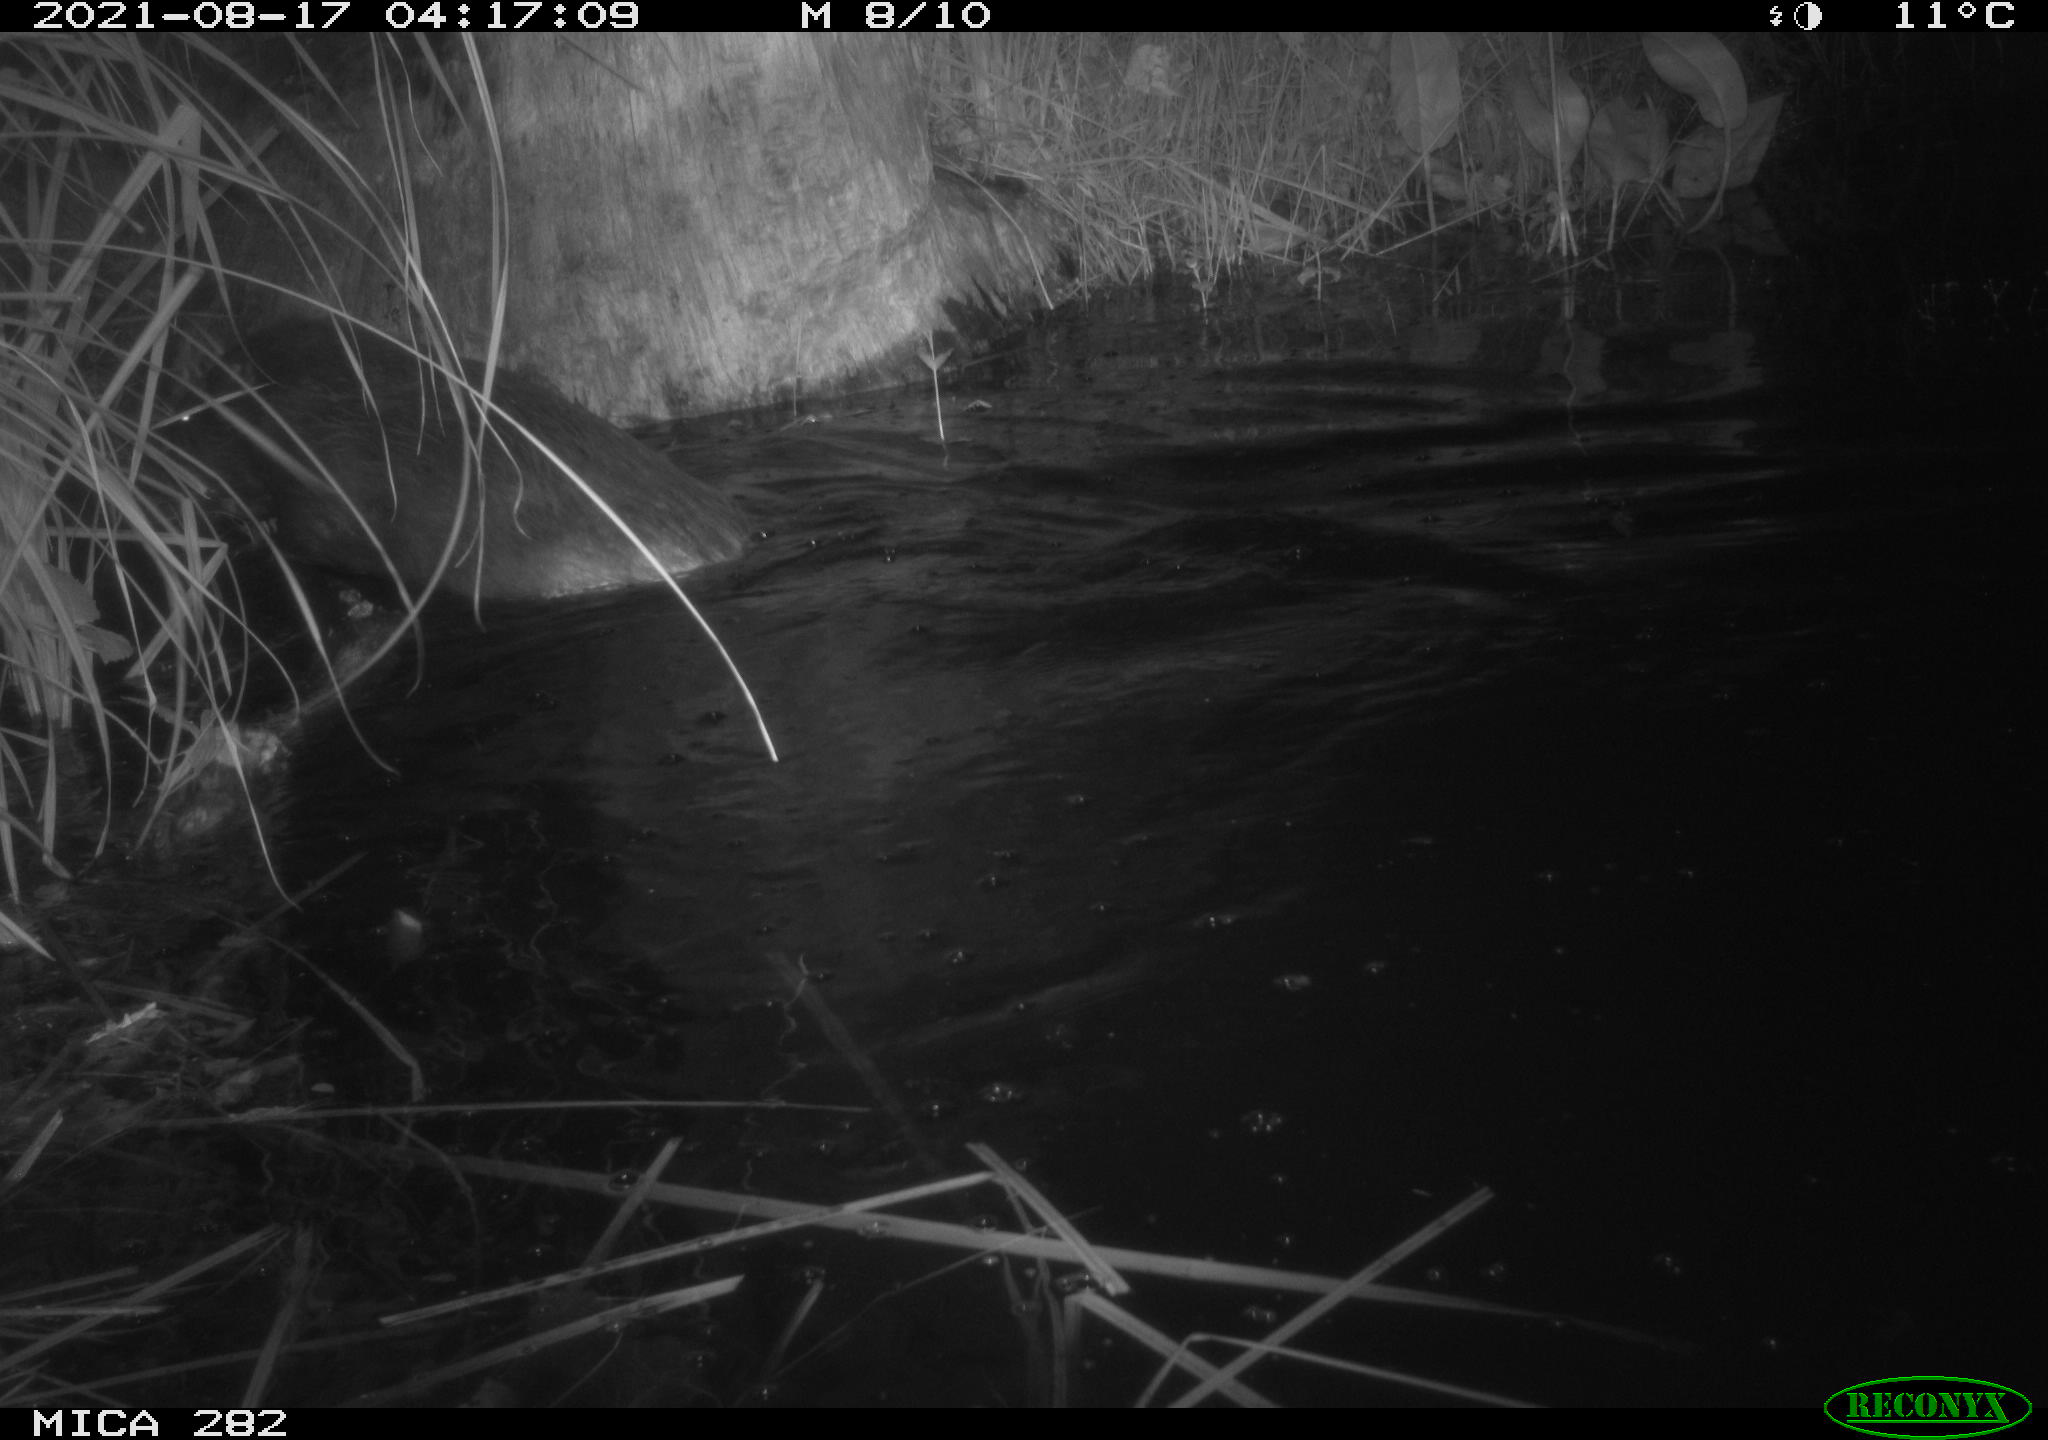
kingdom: Animalia
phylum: Chordata
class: Mammalia
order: Rodentia
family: Castoridae
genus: Castor
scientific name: Castor fiber
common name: Eurasian beaver
